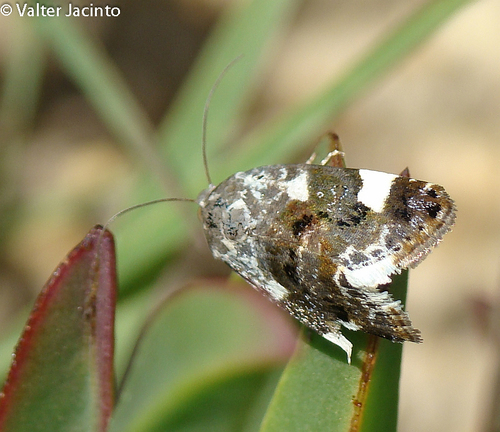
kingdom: Animalia
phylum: Arthropoda
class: Insecta
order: Lepidoptera
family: Noctuidae
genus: Acontia
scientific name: Acontia lucida
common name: Pale shoulder
